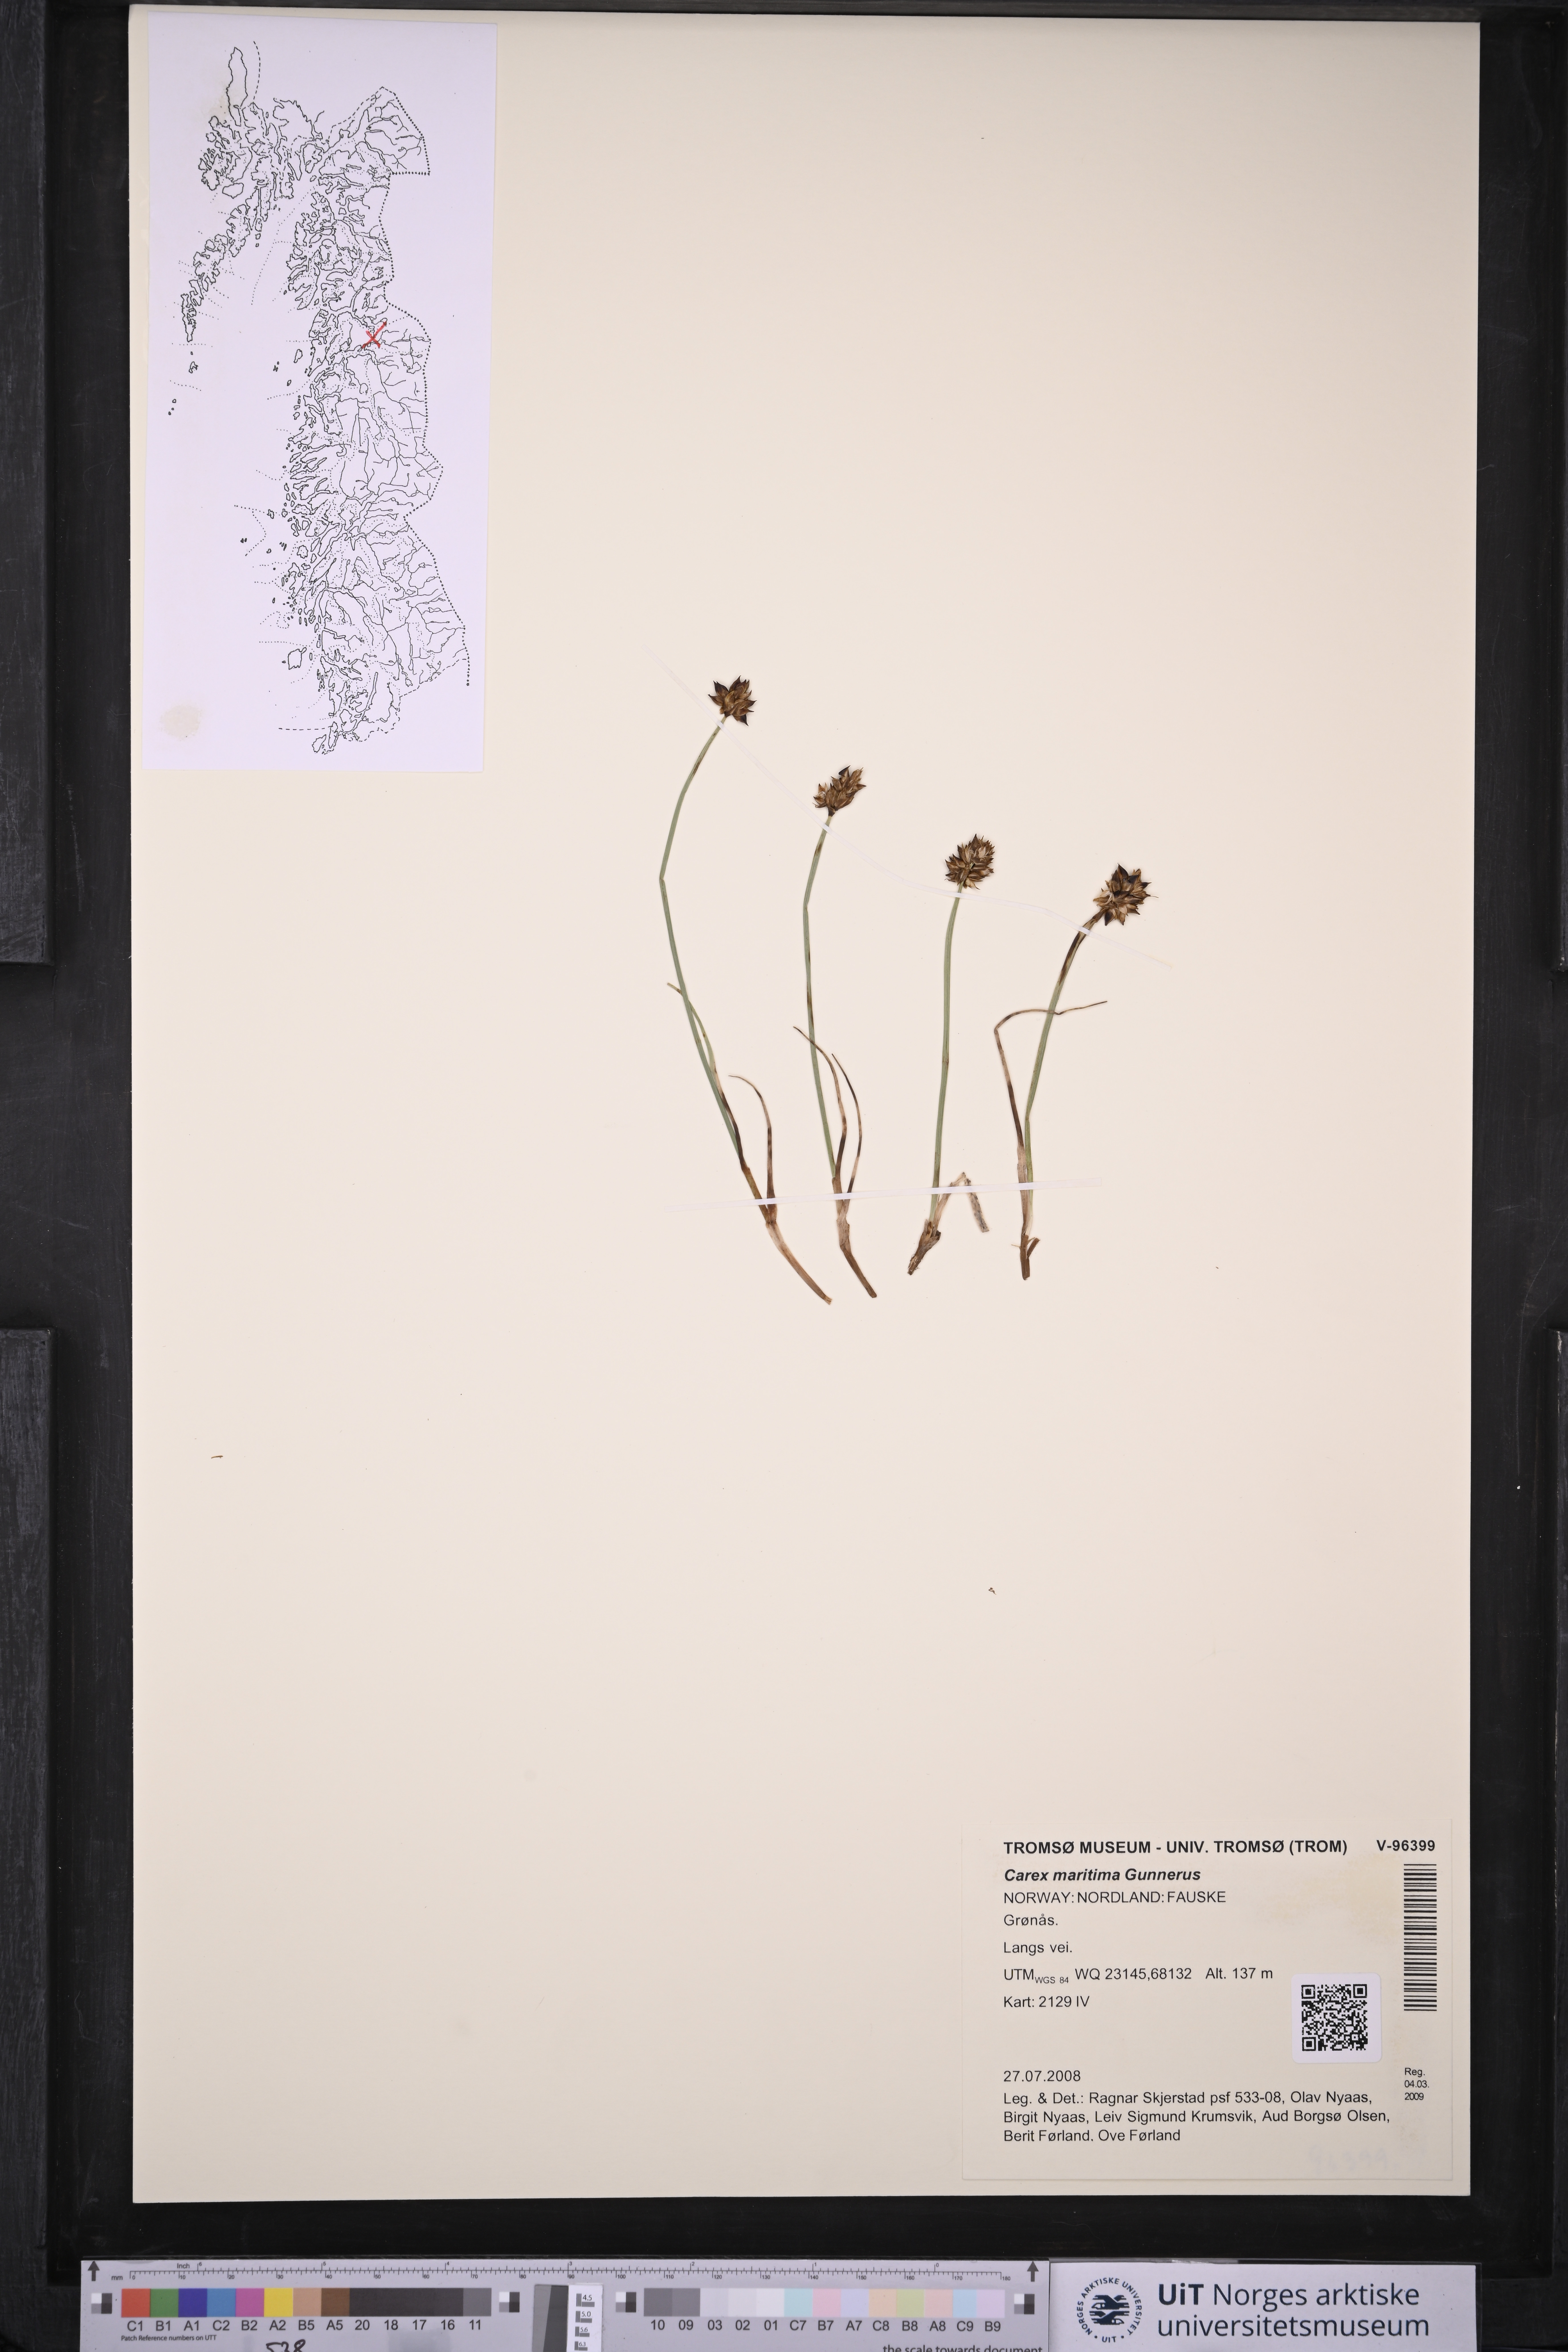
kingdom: Plantae
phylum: Tracheophyta
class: Liliopsida
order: Poales
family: Cyperaceae
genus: Carex
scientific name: Carex maritima
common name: Curved sedge
